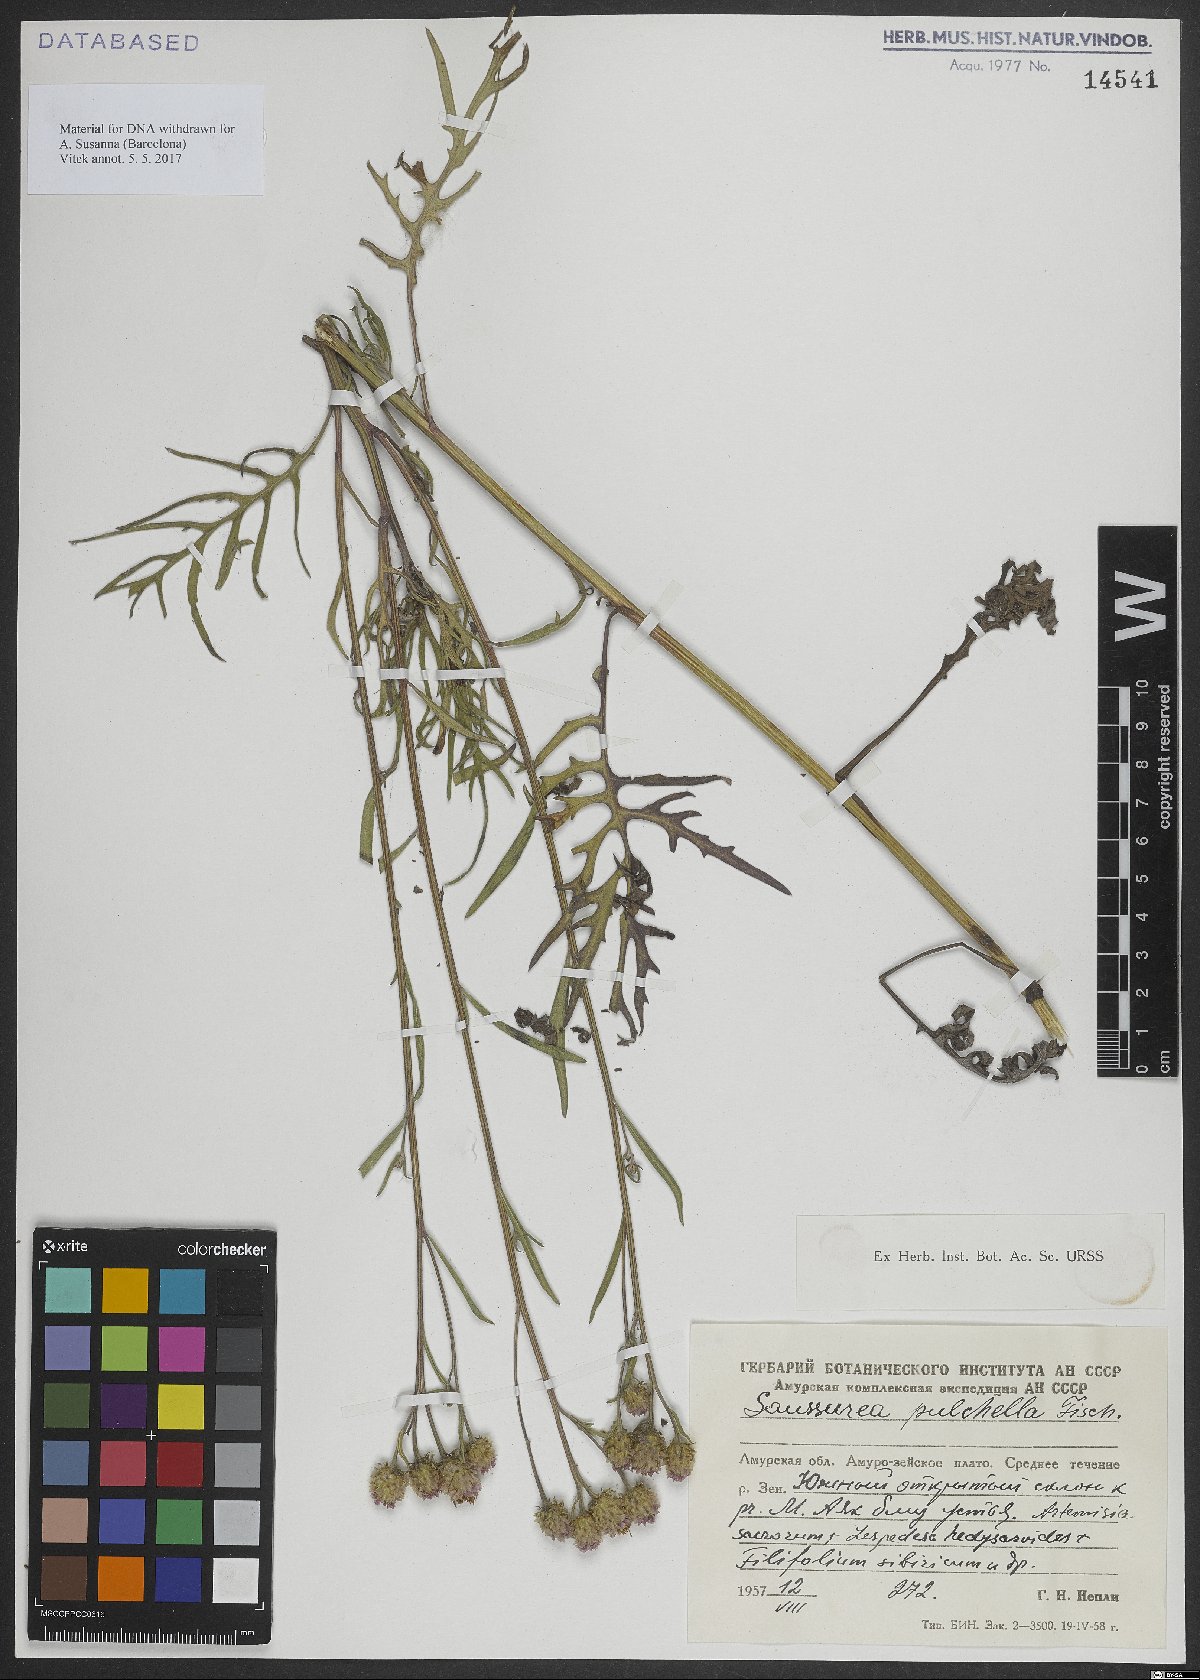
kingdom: Plantae
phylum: Tracheophyta
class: Magnoliopsida
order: Asterales
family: Asteraceae
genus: Saussurea
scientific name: Saussurea pulchella
